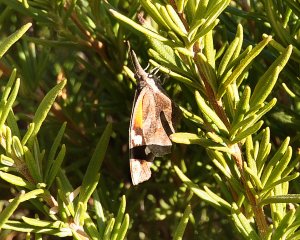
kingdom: Animalia
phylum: Arthropoda
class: Insecta
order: Lepidoptera
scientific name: Lepidoptera
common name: Butterflies
